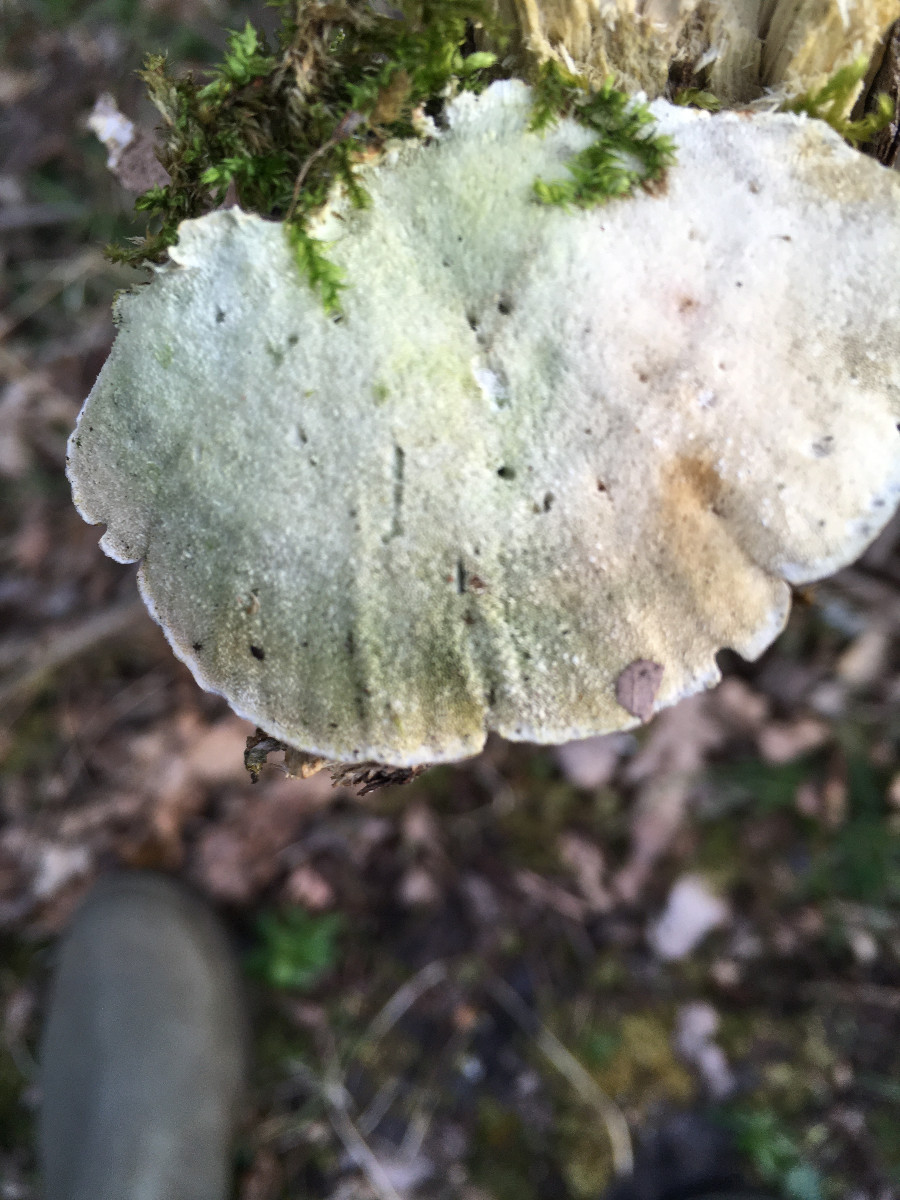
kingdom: Fungi
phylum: Basidiomycota
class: Agaricomycetes
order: Polyporales
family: Polyporaceae
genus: Trametes
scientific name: Trametes versicolor
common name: broget læderporesvamp
